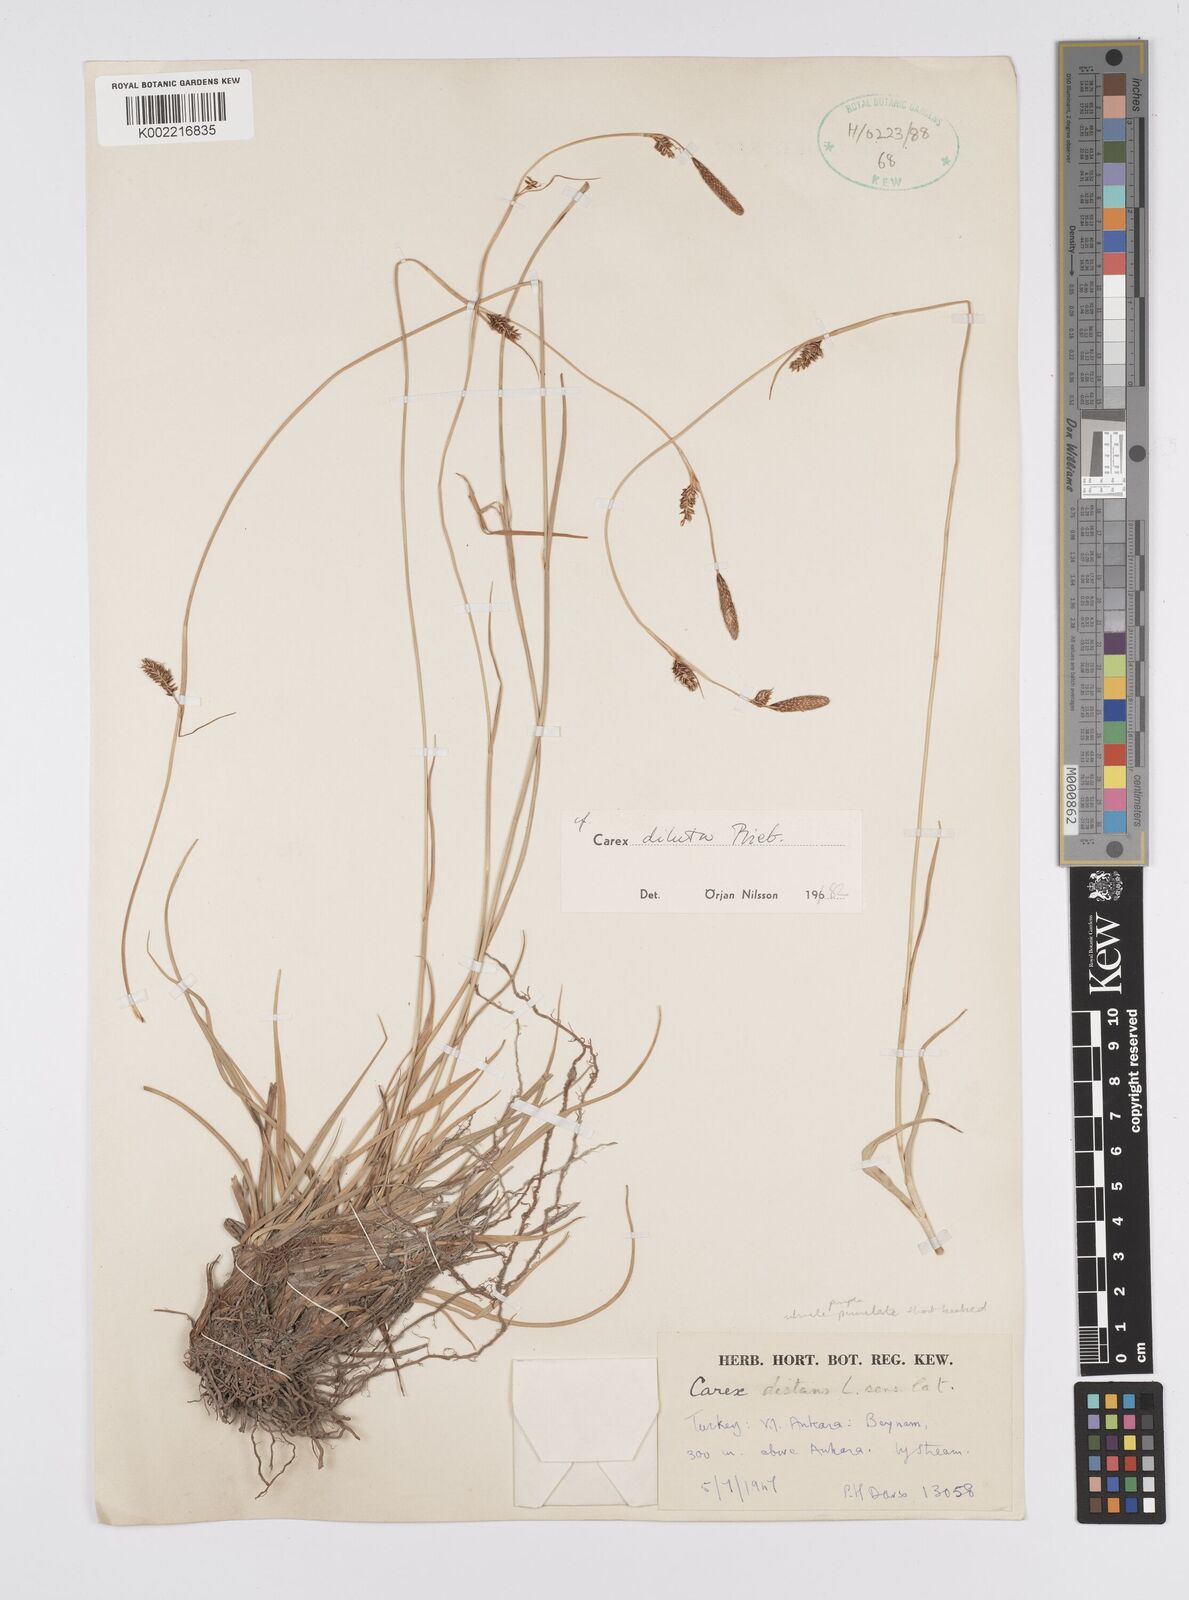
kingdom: Plantae
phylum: Tracheophyta
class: Liliopsida
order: Poales
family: Cyperaceae
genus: Carex
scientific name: Carex diluta
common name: Sedge
